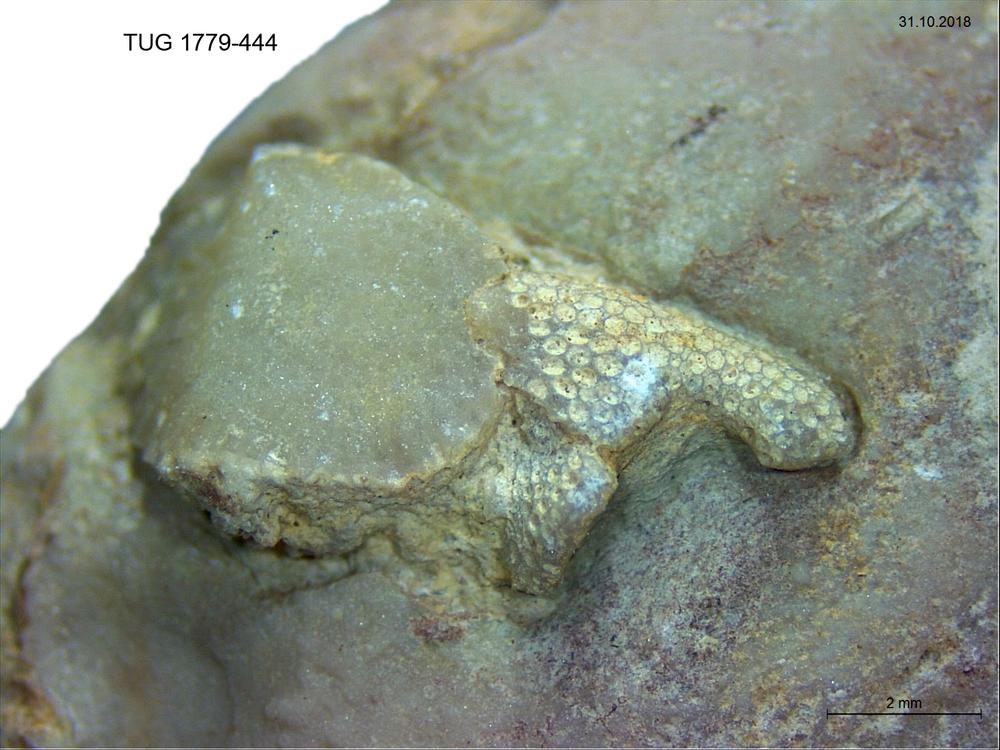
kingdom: Animalia
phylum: Bryozoa
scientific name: Bryozoa
